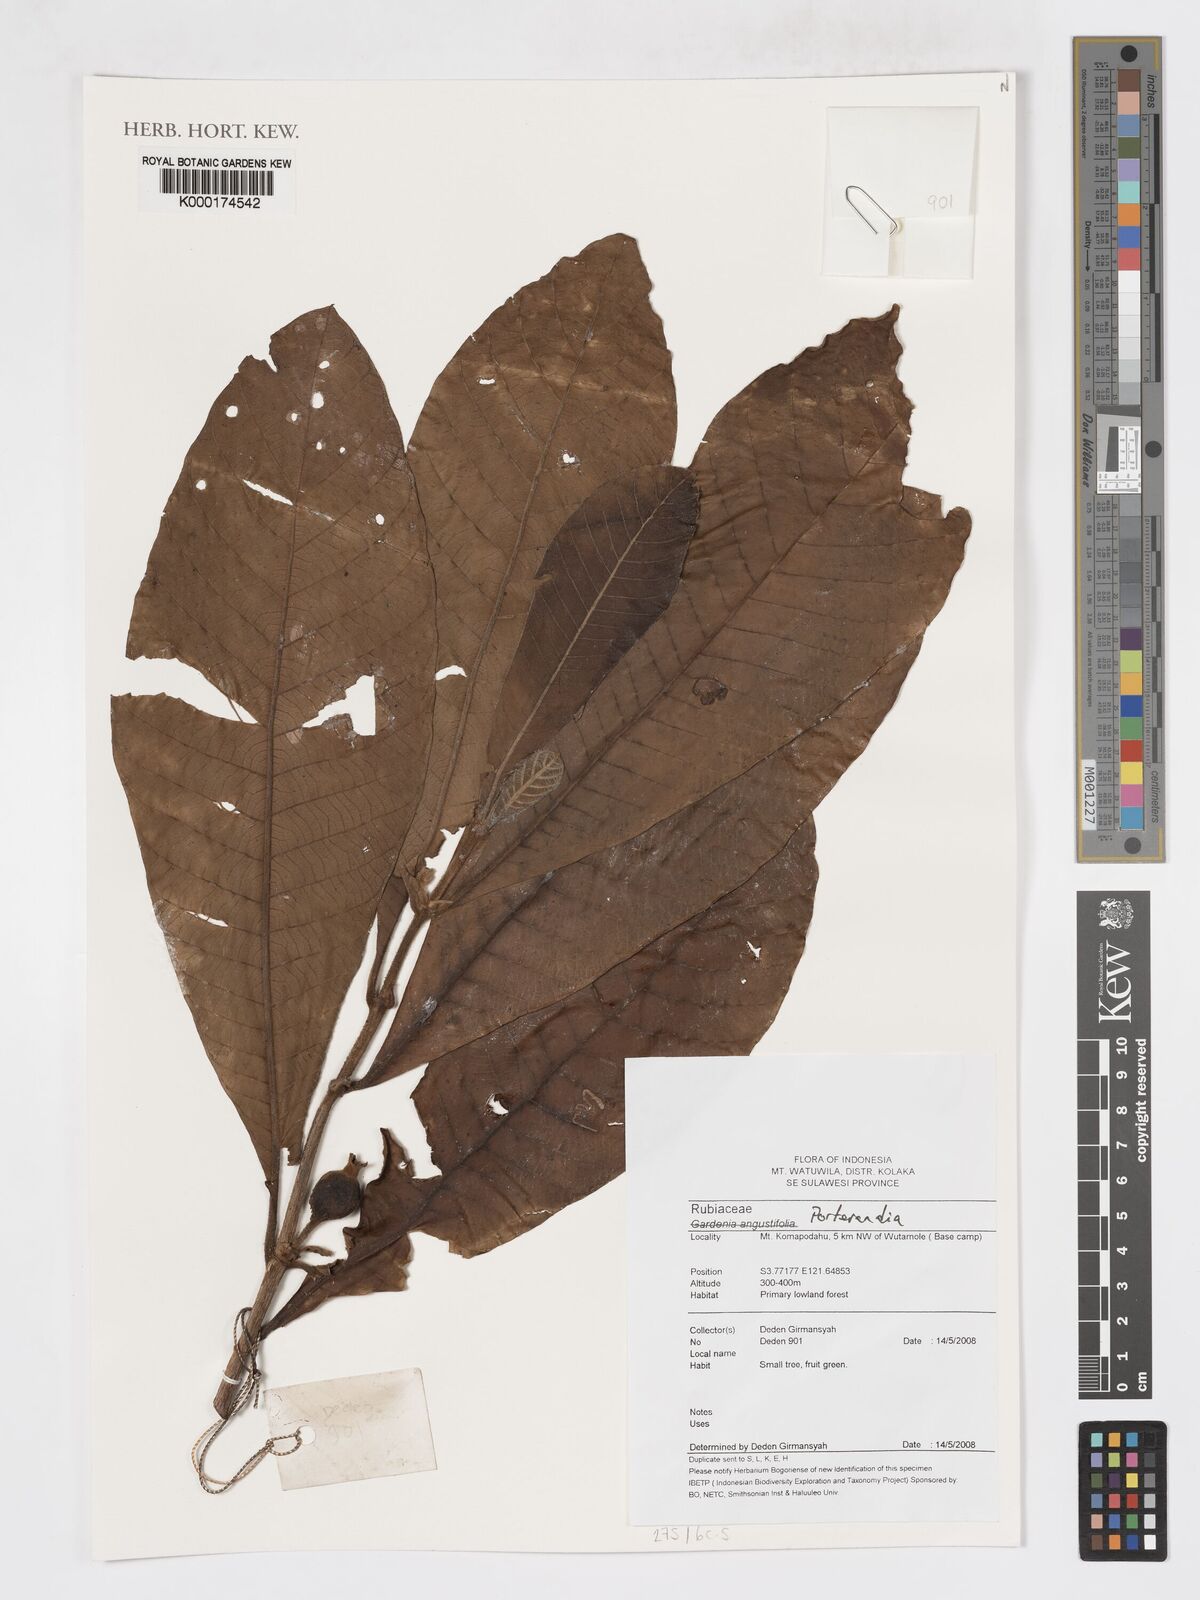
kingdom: Plantae
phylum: Tracheophyta
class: Magnoliopsida
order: Gentianales
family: Rubiaceae
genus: Porterandia
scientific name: Porterandia
